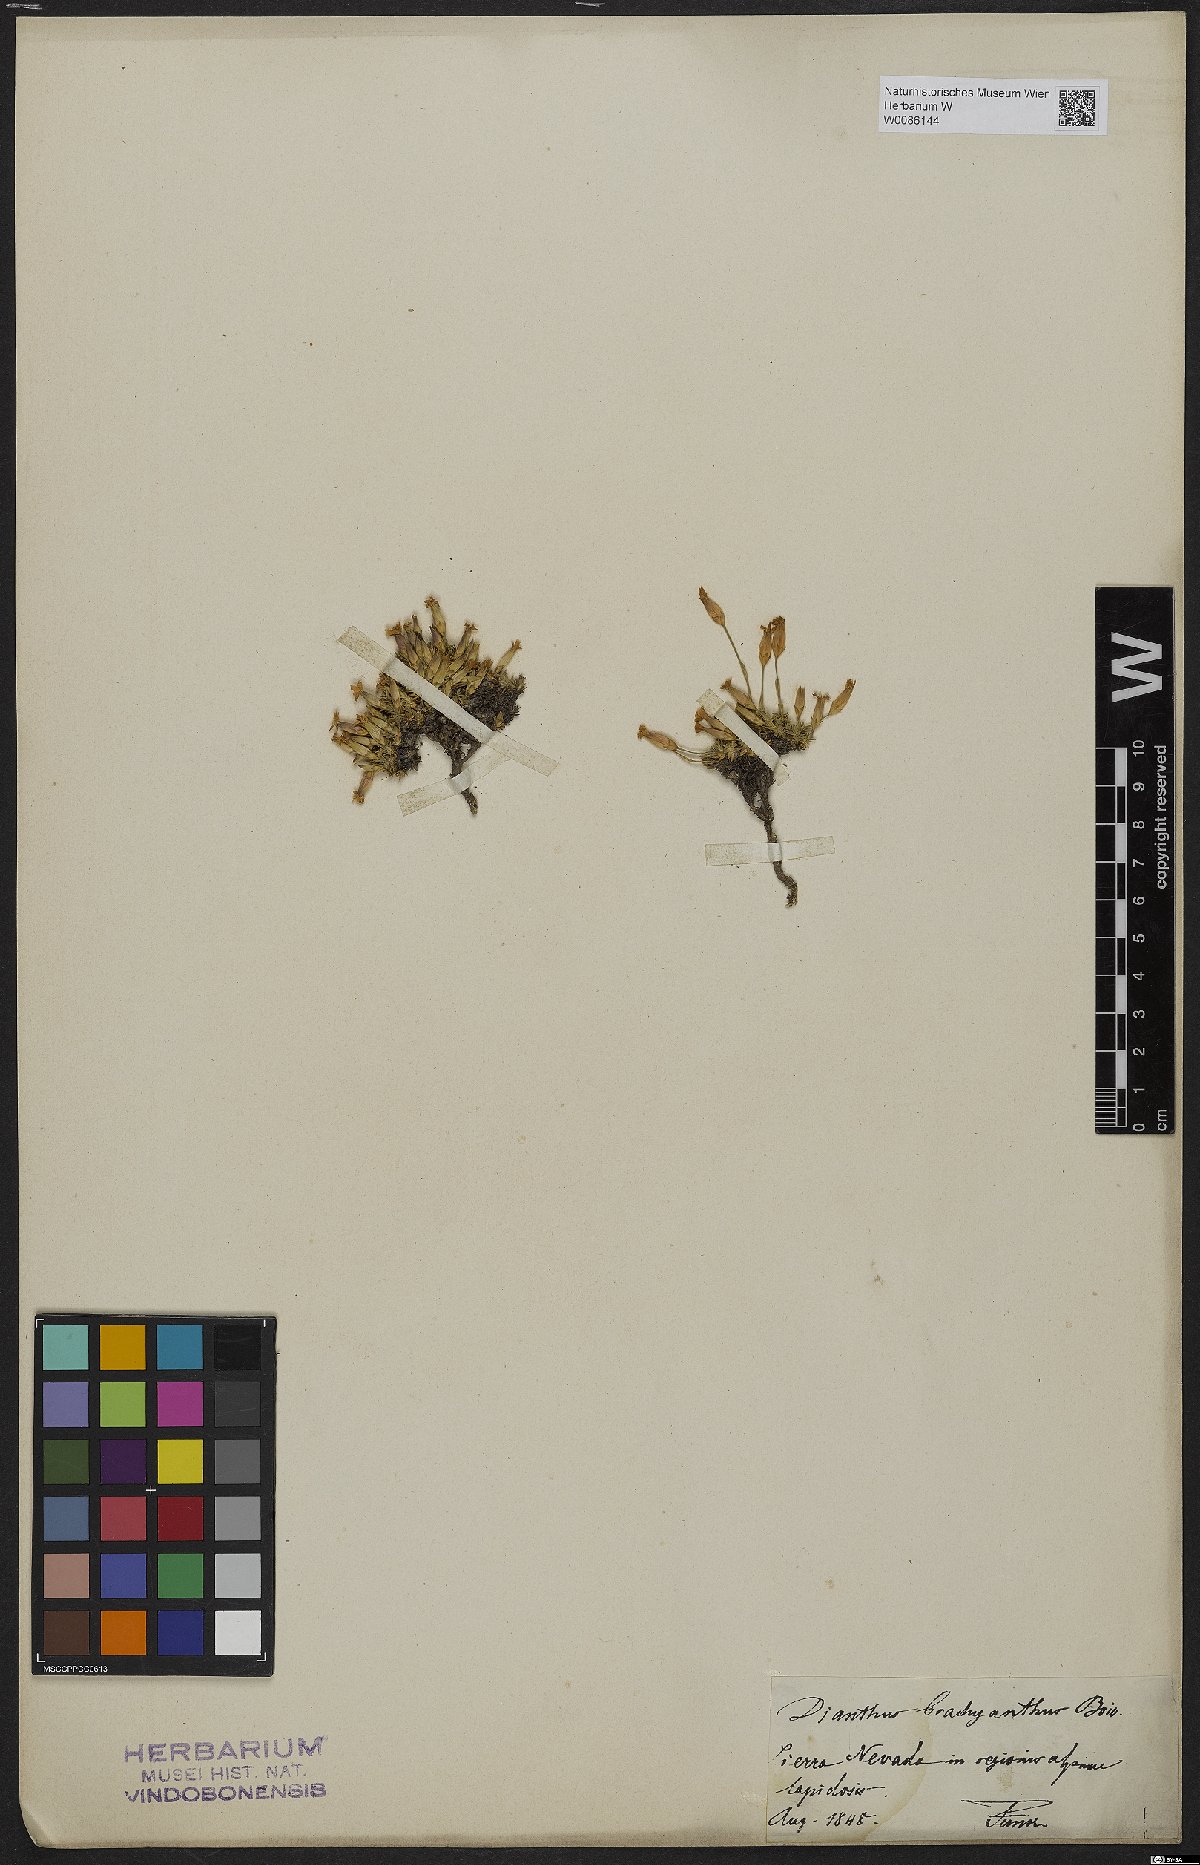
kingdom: Plantae
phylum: Tracheophyta
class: Magnoliopsida
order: Caryophyllales
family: Caryophyllaceae
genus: Dianthus
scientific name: Dianthus pungens
